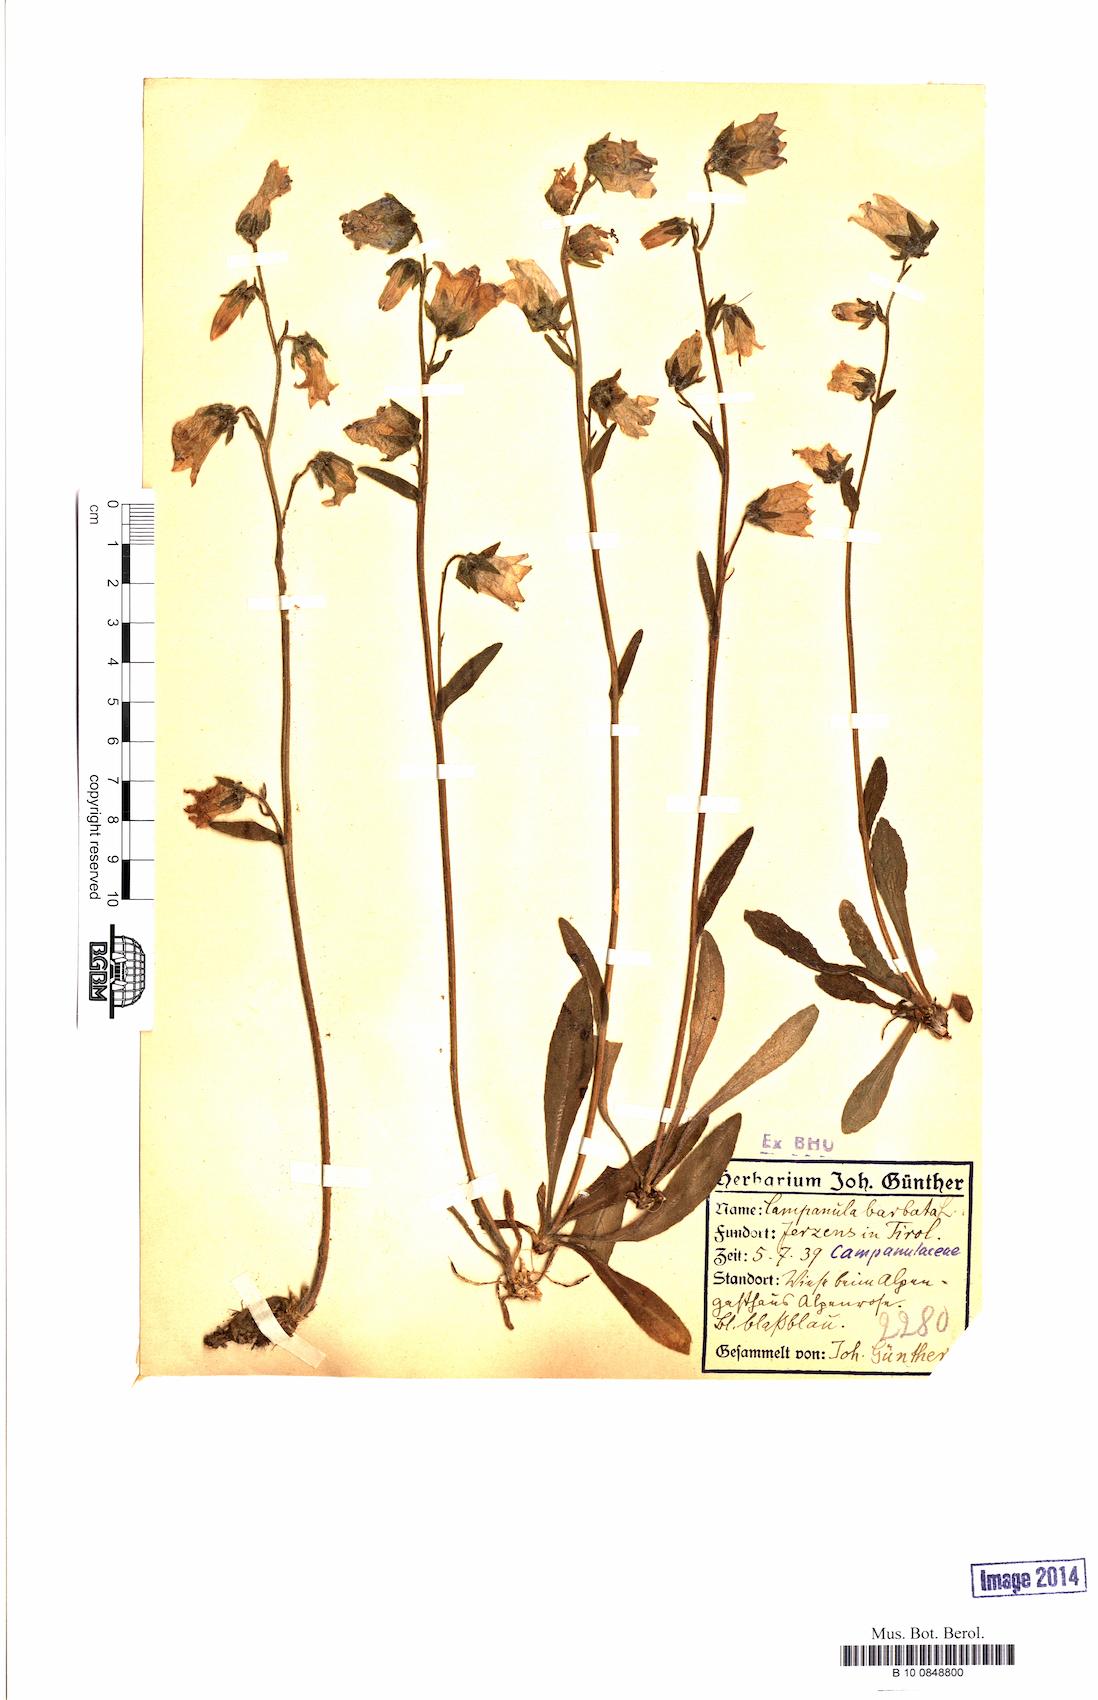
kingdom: Plantae
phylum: Tracheophyta
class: Magnoliopsida
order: Asterales
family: Campanulaceae
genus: Campanula
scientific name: Campanula barbata
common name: Bearded bellflower
